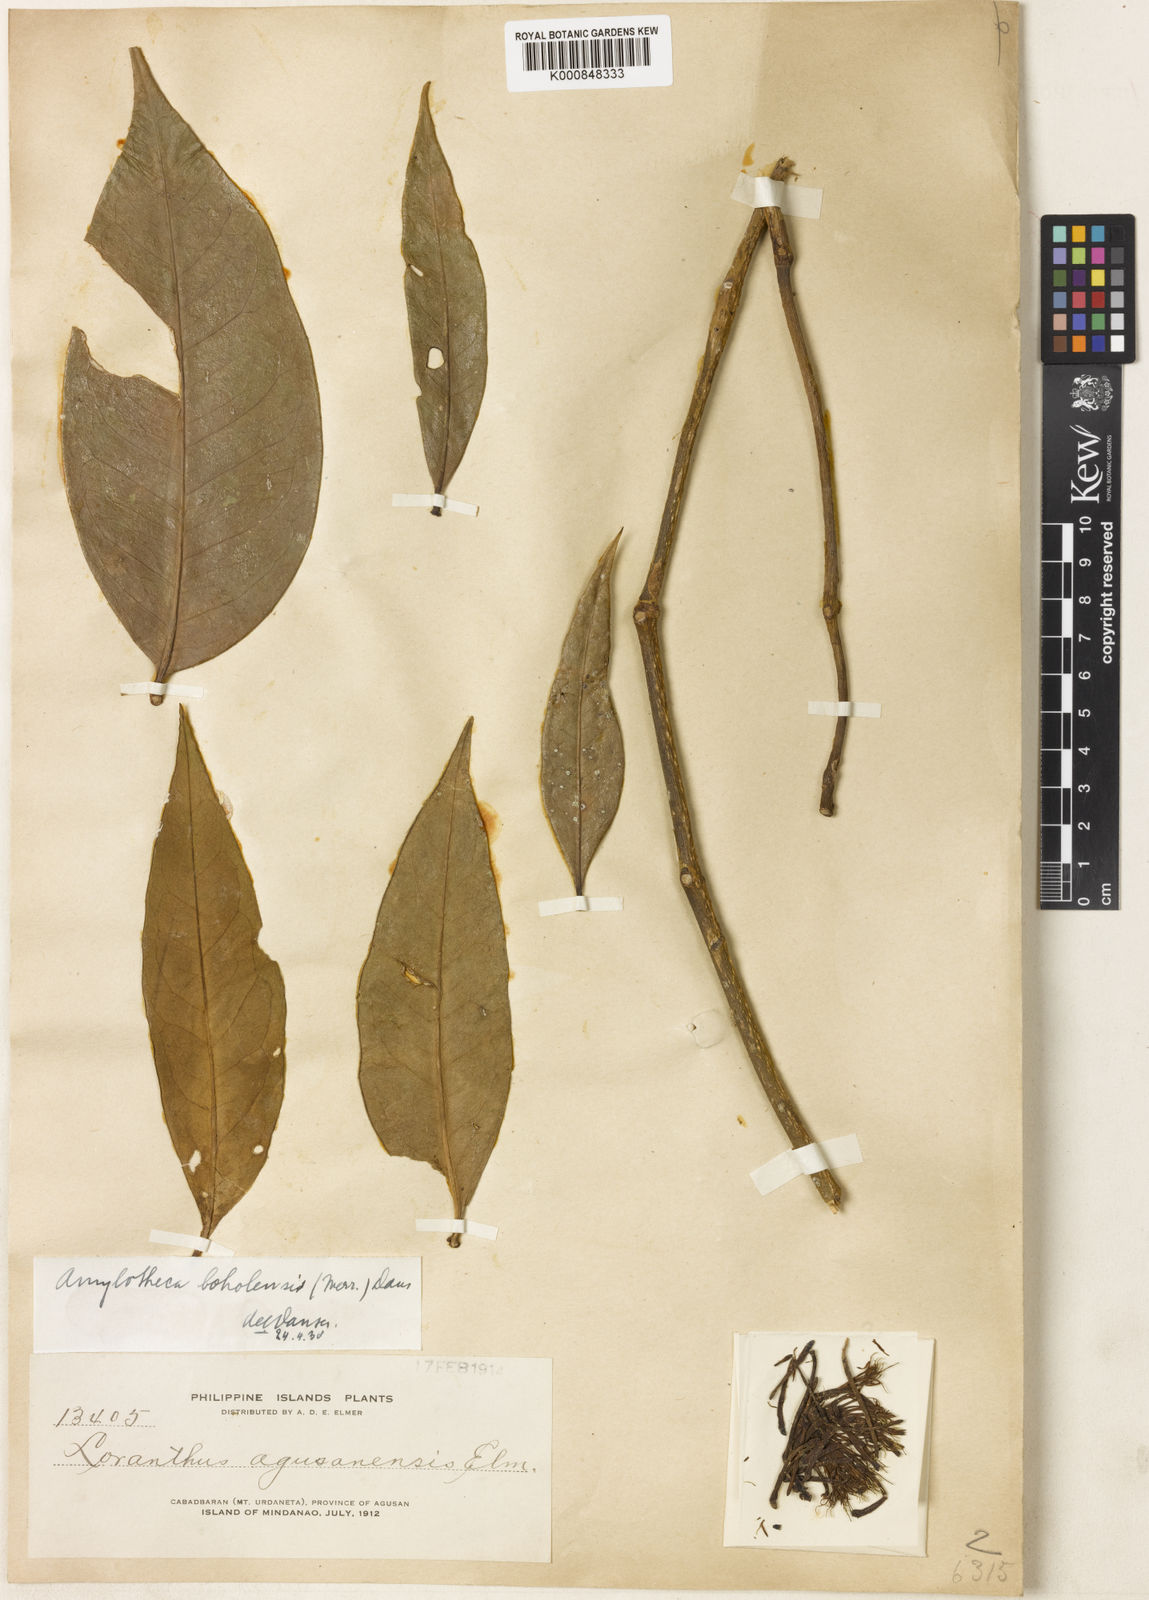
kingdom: Plantae
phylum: Tracheophyta
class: Magnoliopsida
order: Santalales
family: Loranthaceae
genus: Decaisnina
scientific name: Decaisnina sumbawensis
